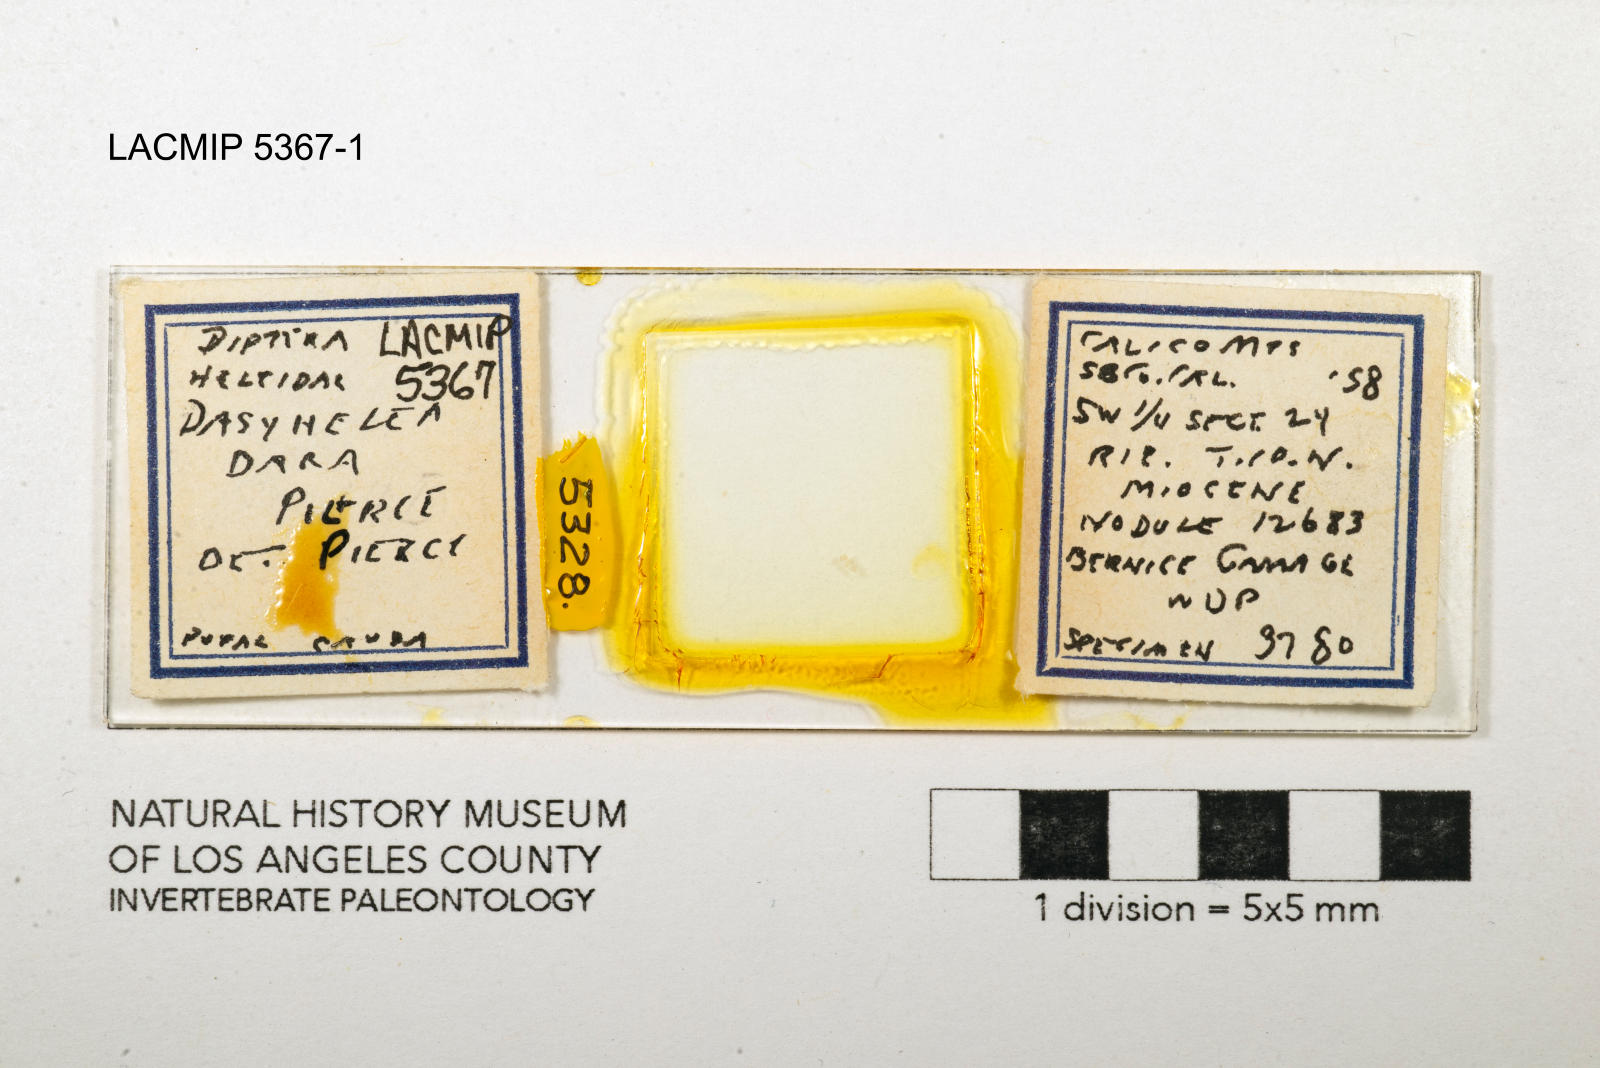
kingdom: Animalia
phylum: Arthropoda
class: Insecta
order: Diptera
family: Ceratopogonidae
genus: Dasyhelea
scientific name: Dasyhelea dara
